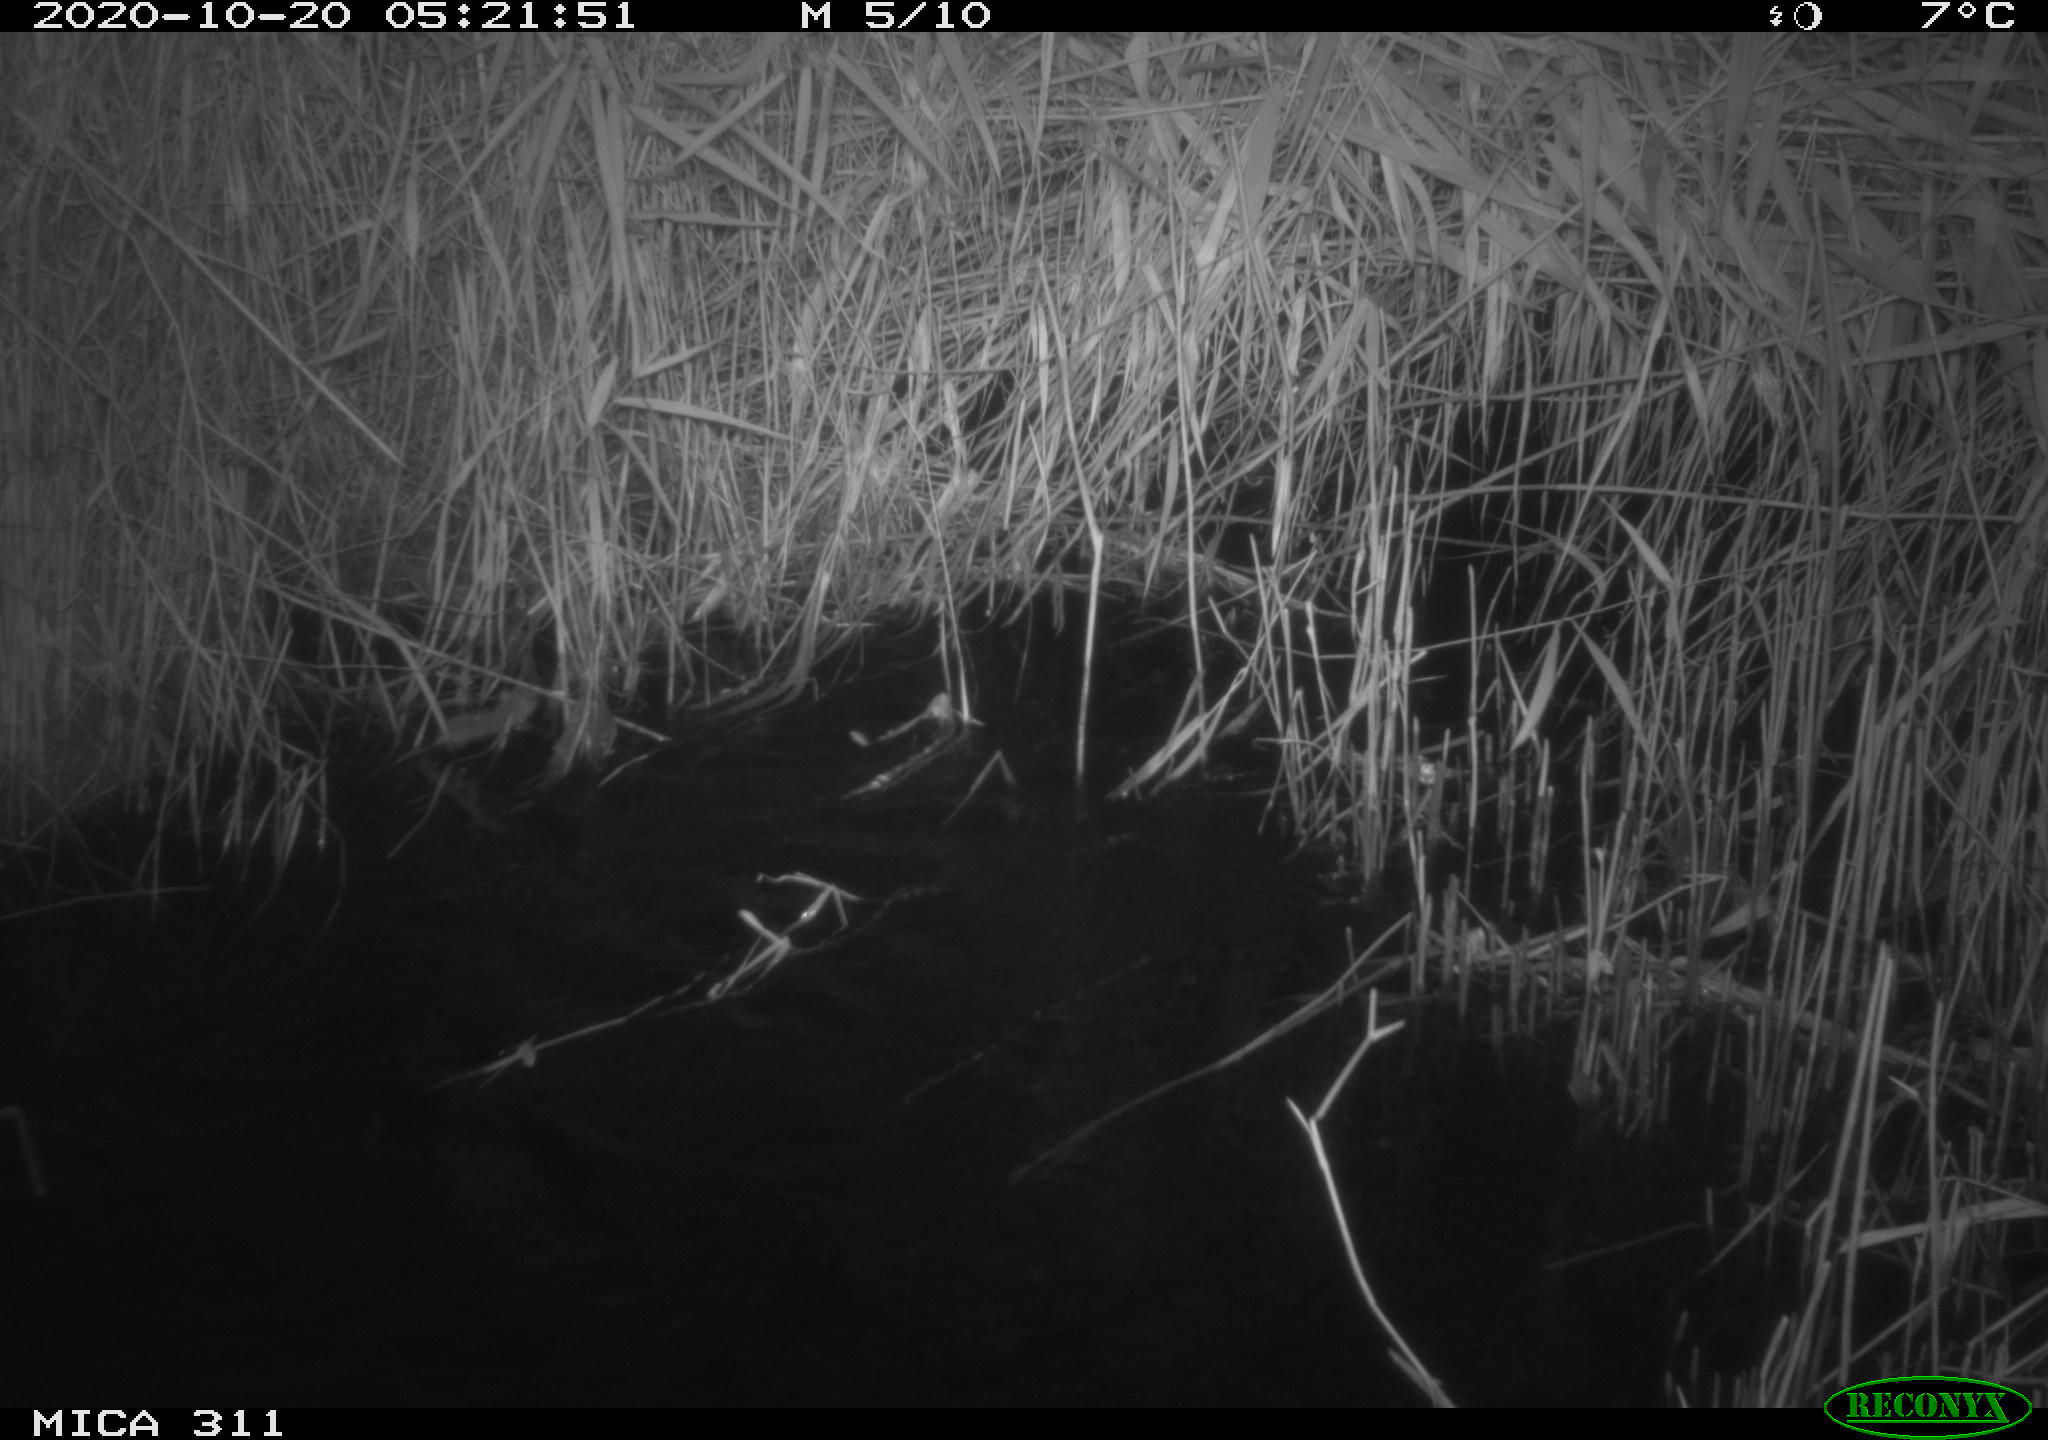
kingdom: Animalia
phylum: Chordata
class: Mammalia
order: Rodentia
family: Muridae
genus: Apodemus
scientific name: Apodemus sylvaticus
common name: Wood mouse
